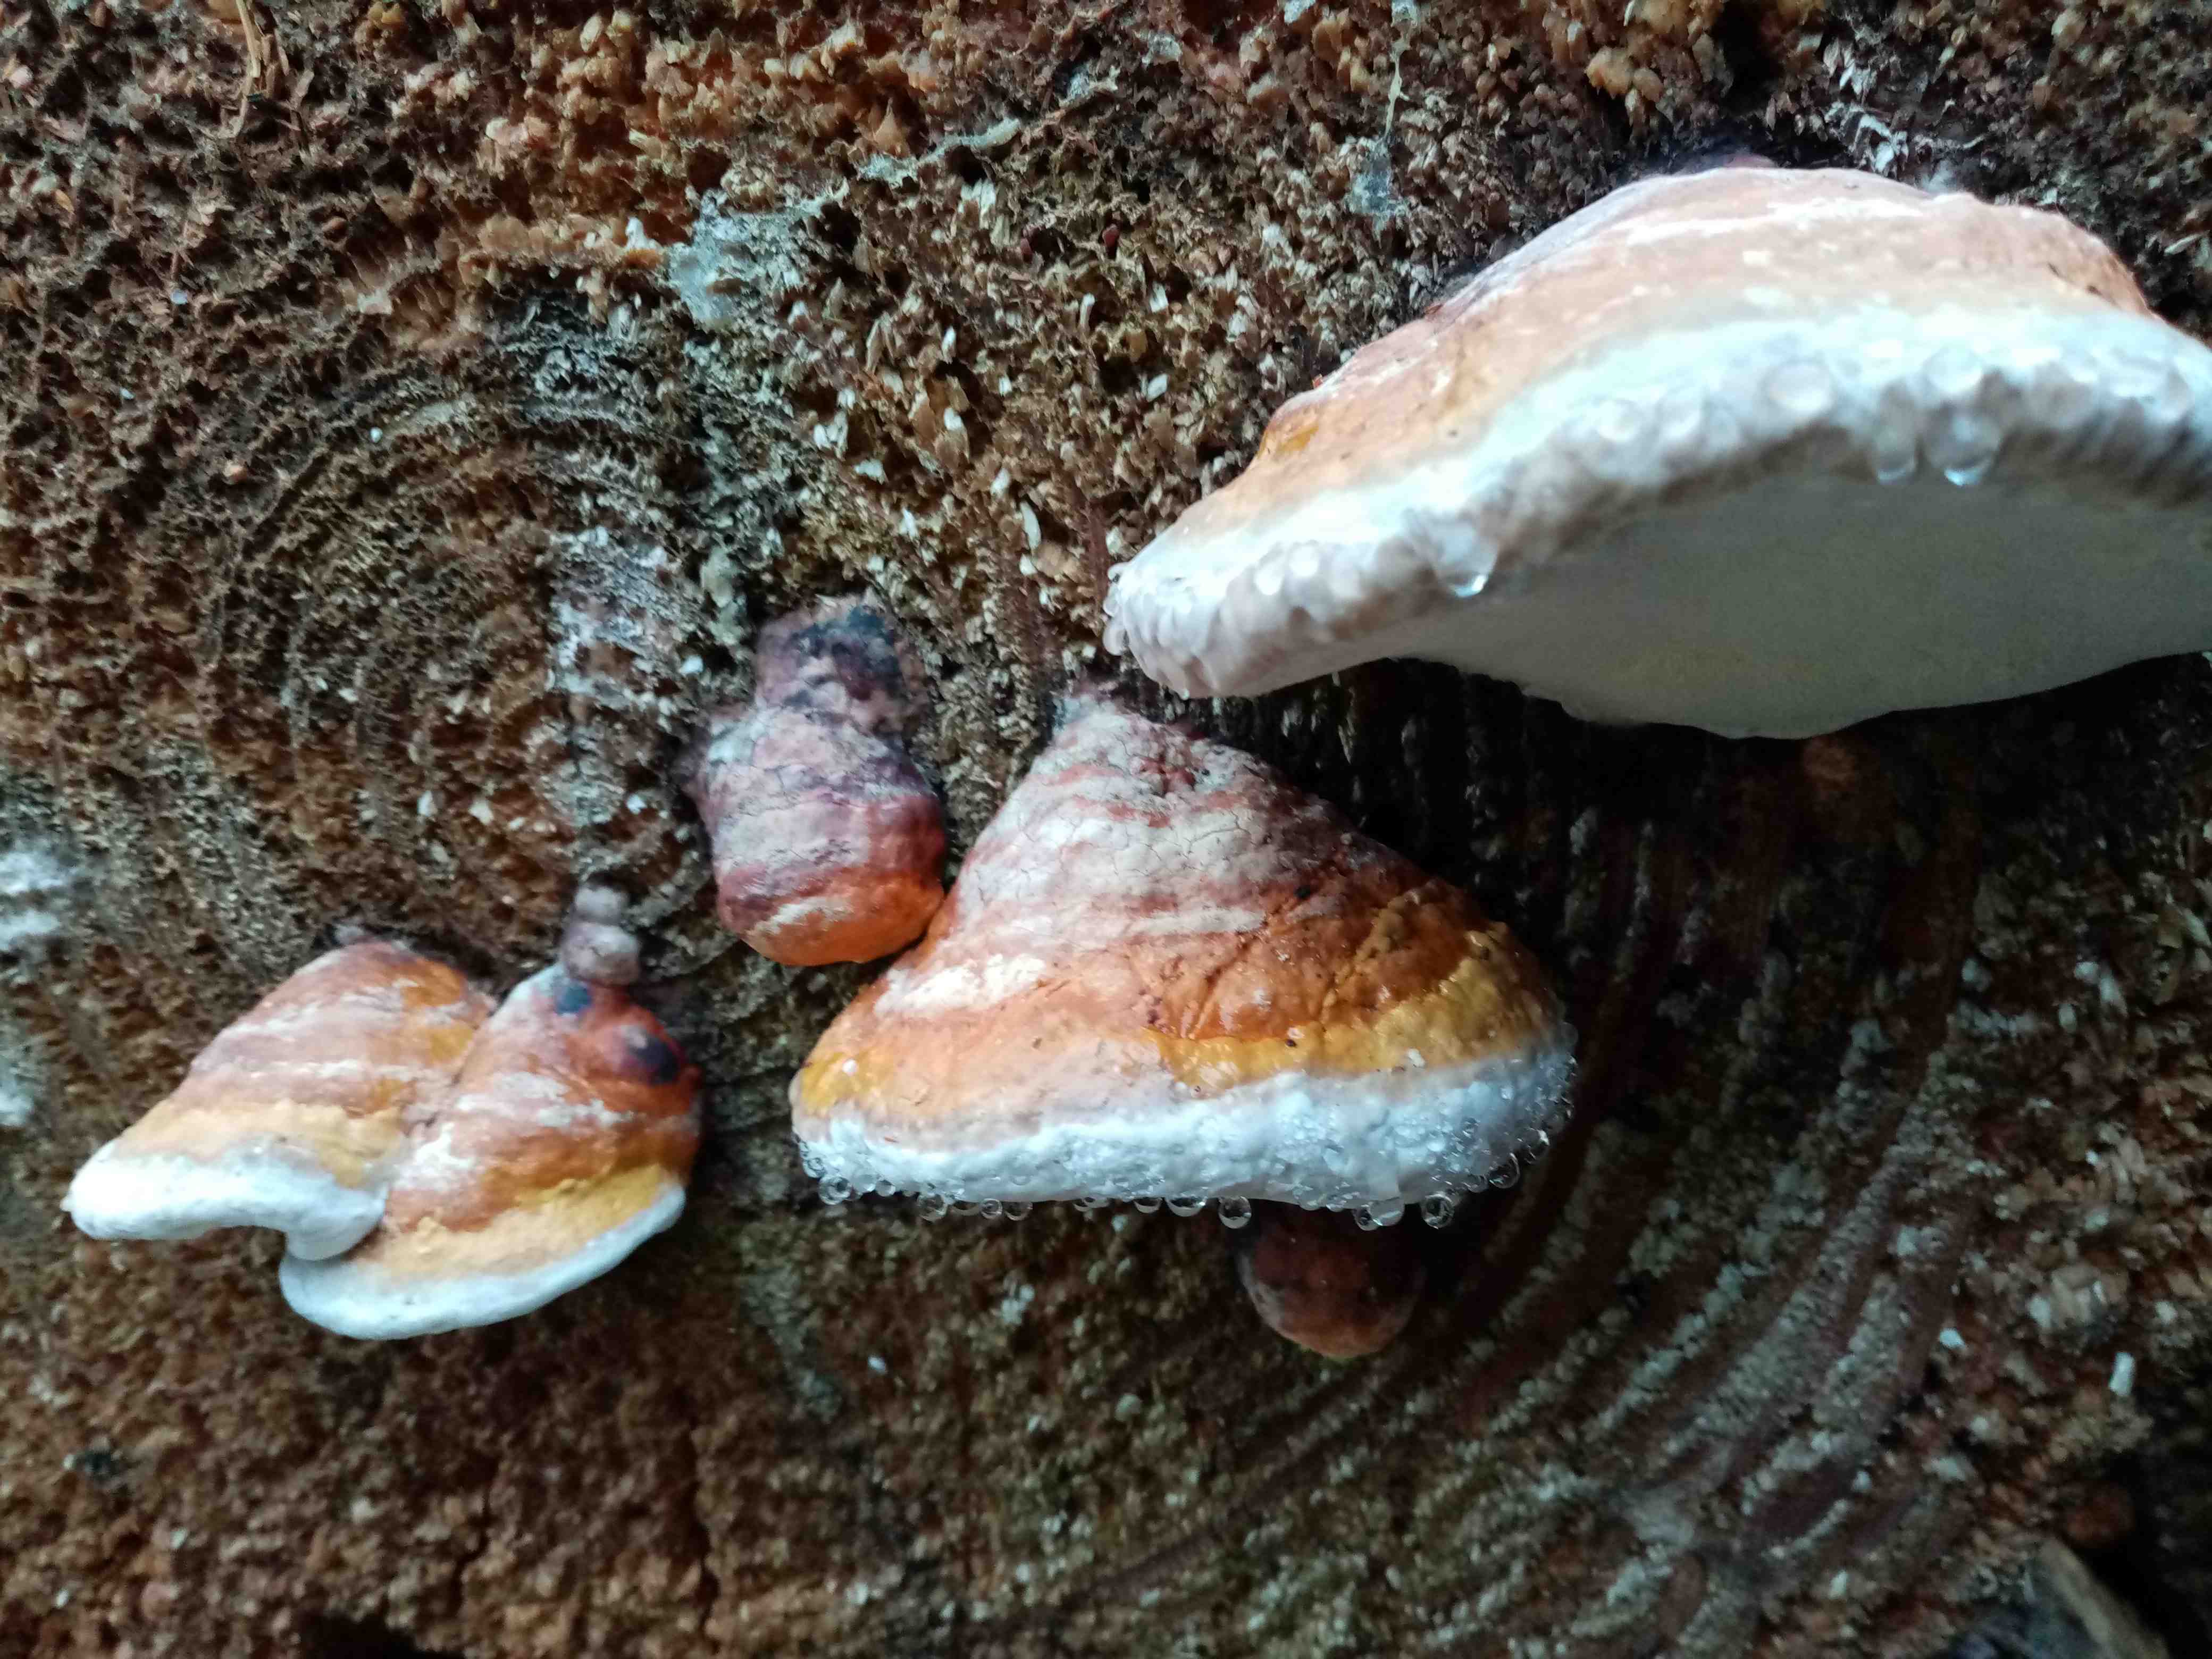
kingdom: Fungi
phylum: Basidiomycota
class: Agaricomycetes
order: Polyporales
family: Fomitopsidaceae
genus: Fomitopsis
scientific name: Fomitopsis pinicola
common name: randbæltet hovporesvamp
